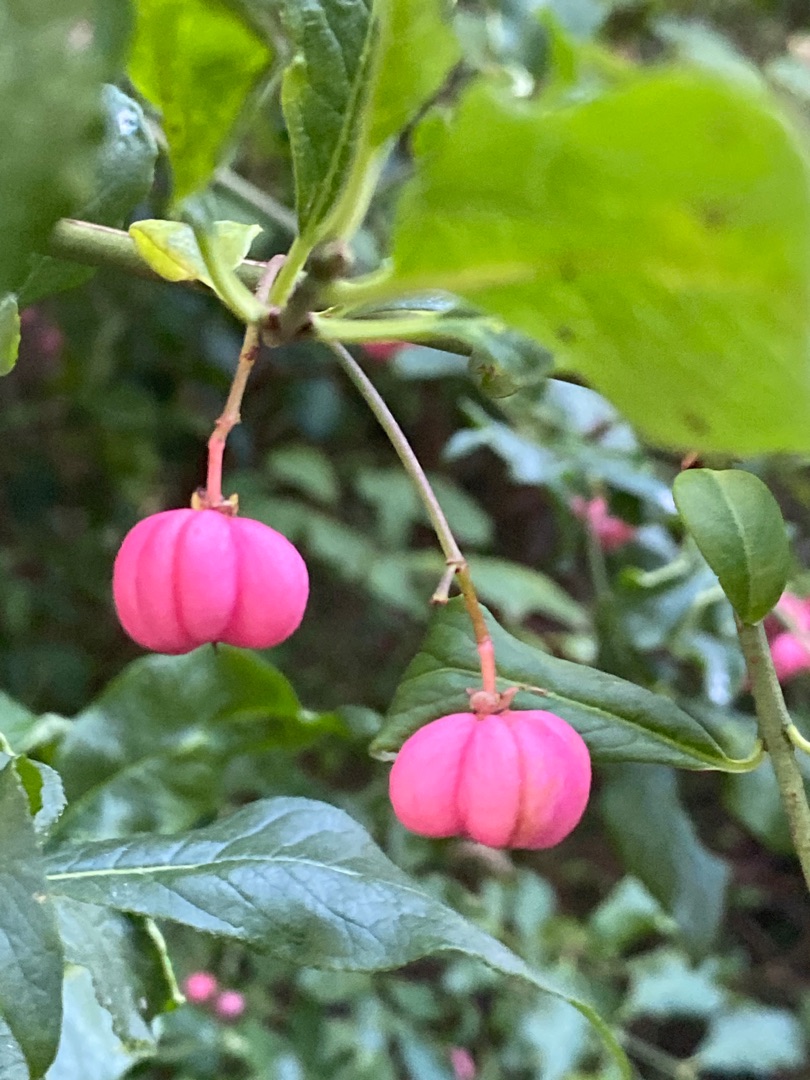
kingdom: Plantae
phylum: Tracheophyta
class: Magnoliopsida
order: Celastrales
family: Celastraceae
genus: Euonymus
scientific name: Euonymus europaeus
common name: Benved
